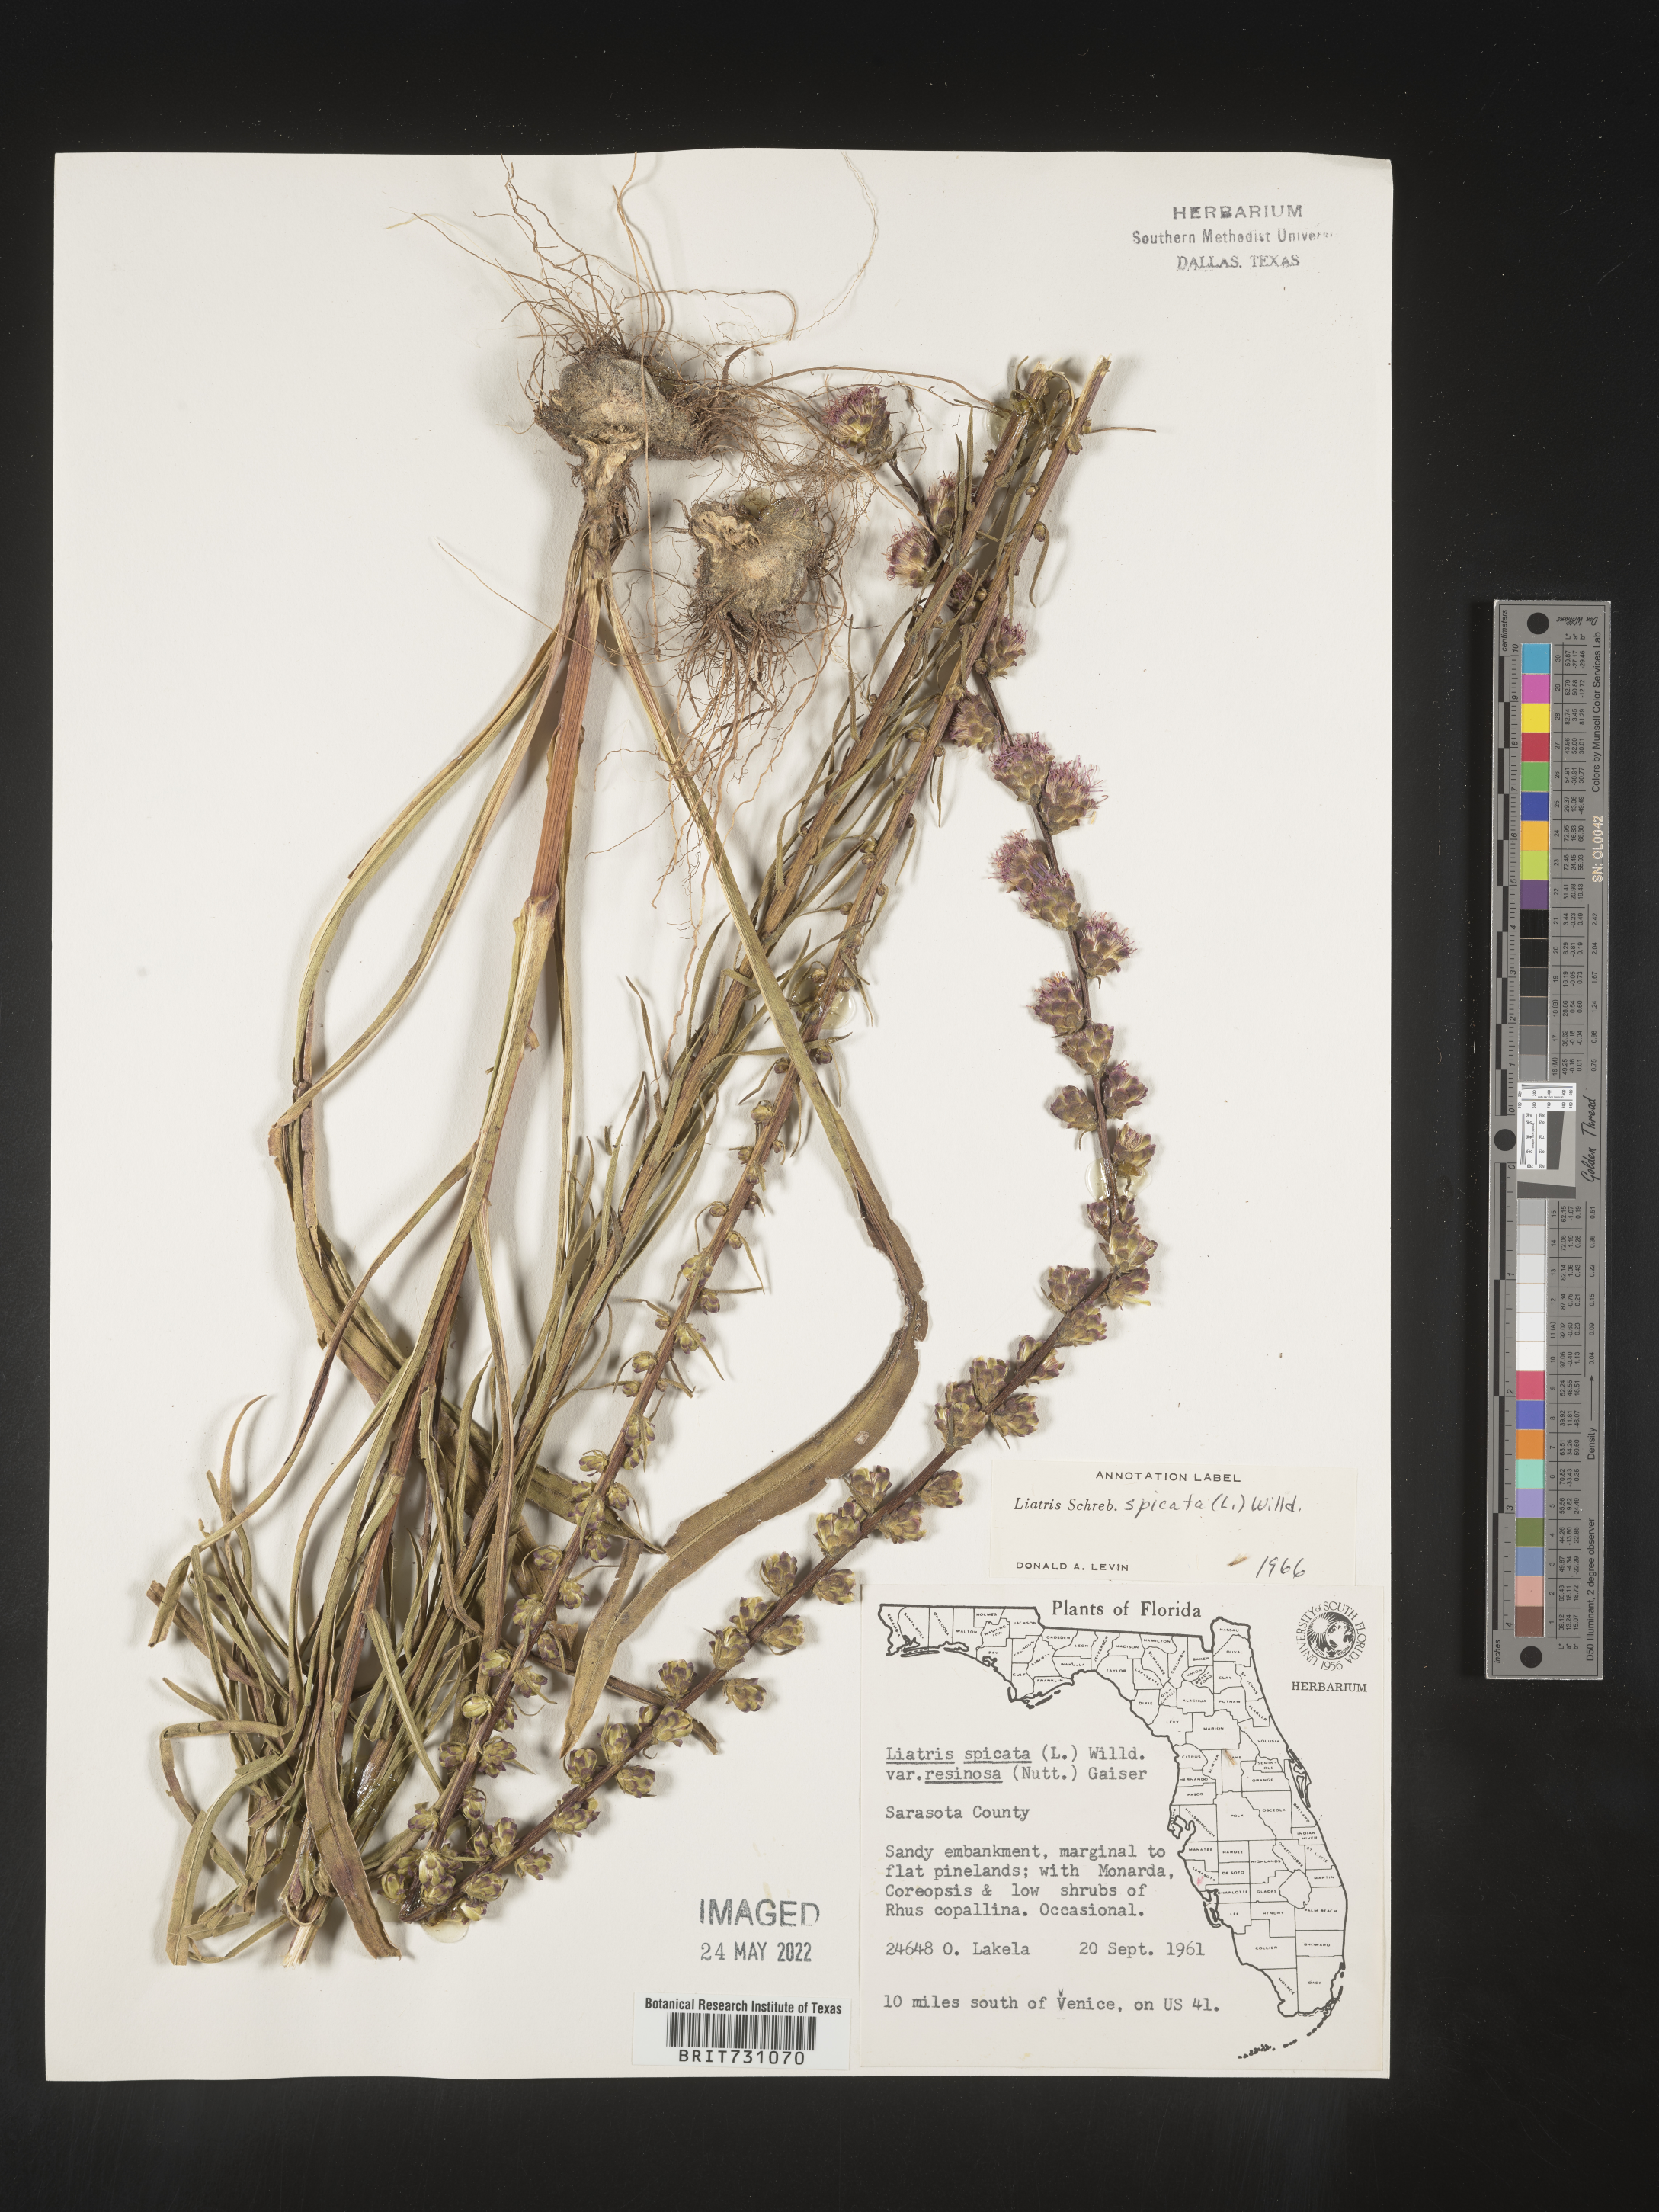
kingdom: Plantae
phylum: Tracheophyta
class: Magnoliopsida
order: Asterales
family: Asteraceae
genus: Liatris
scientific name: Liatris spicata
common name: Florist gayfeather
